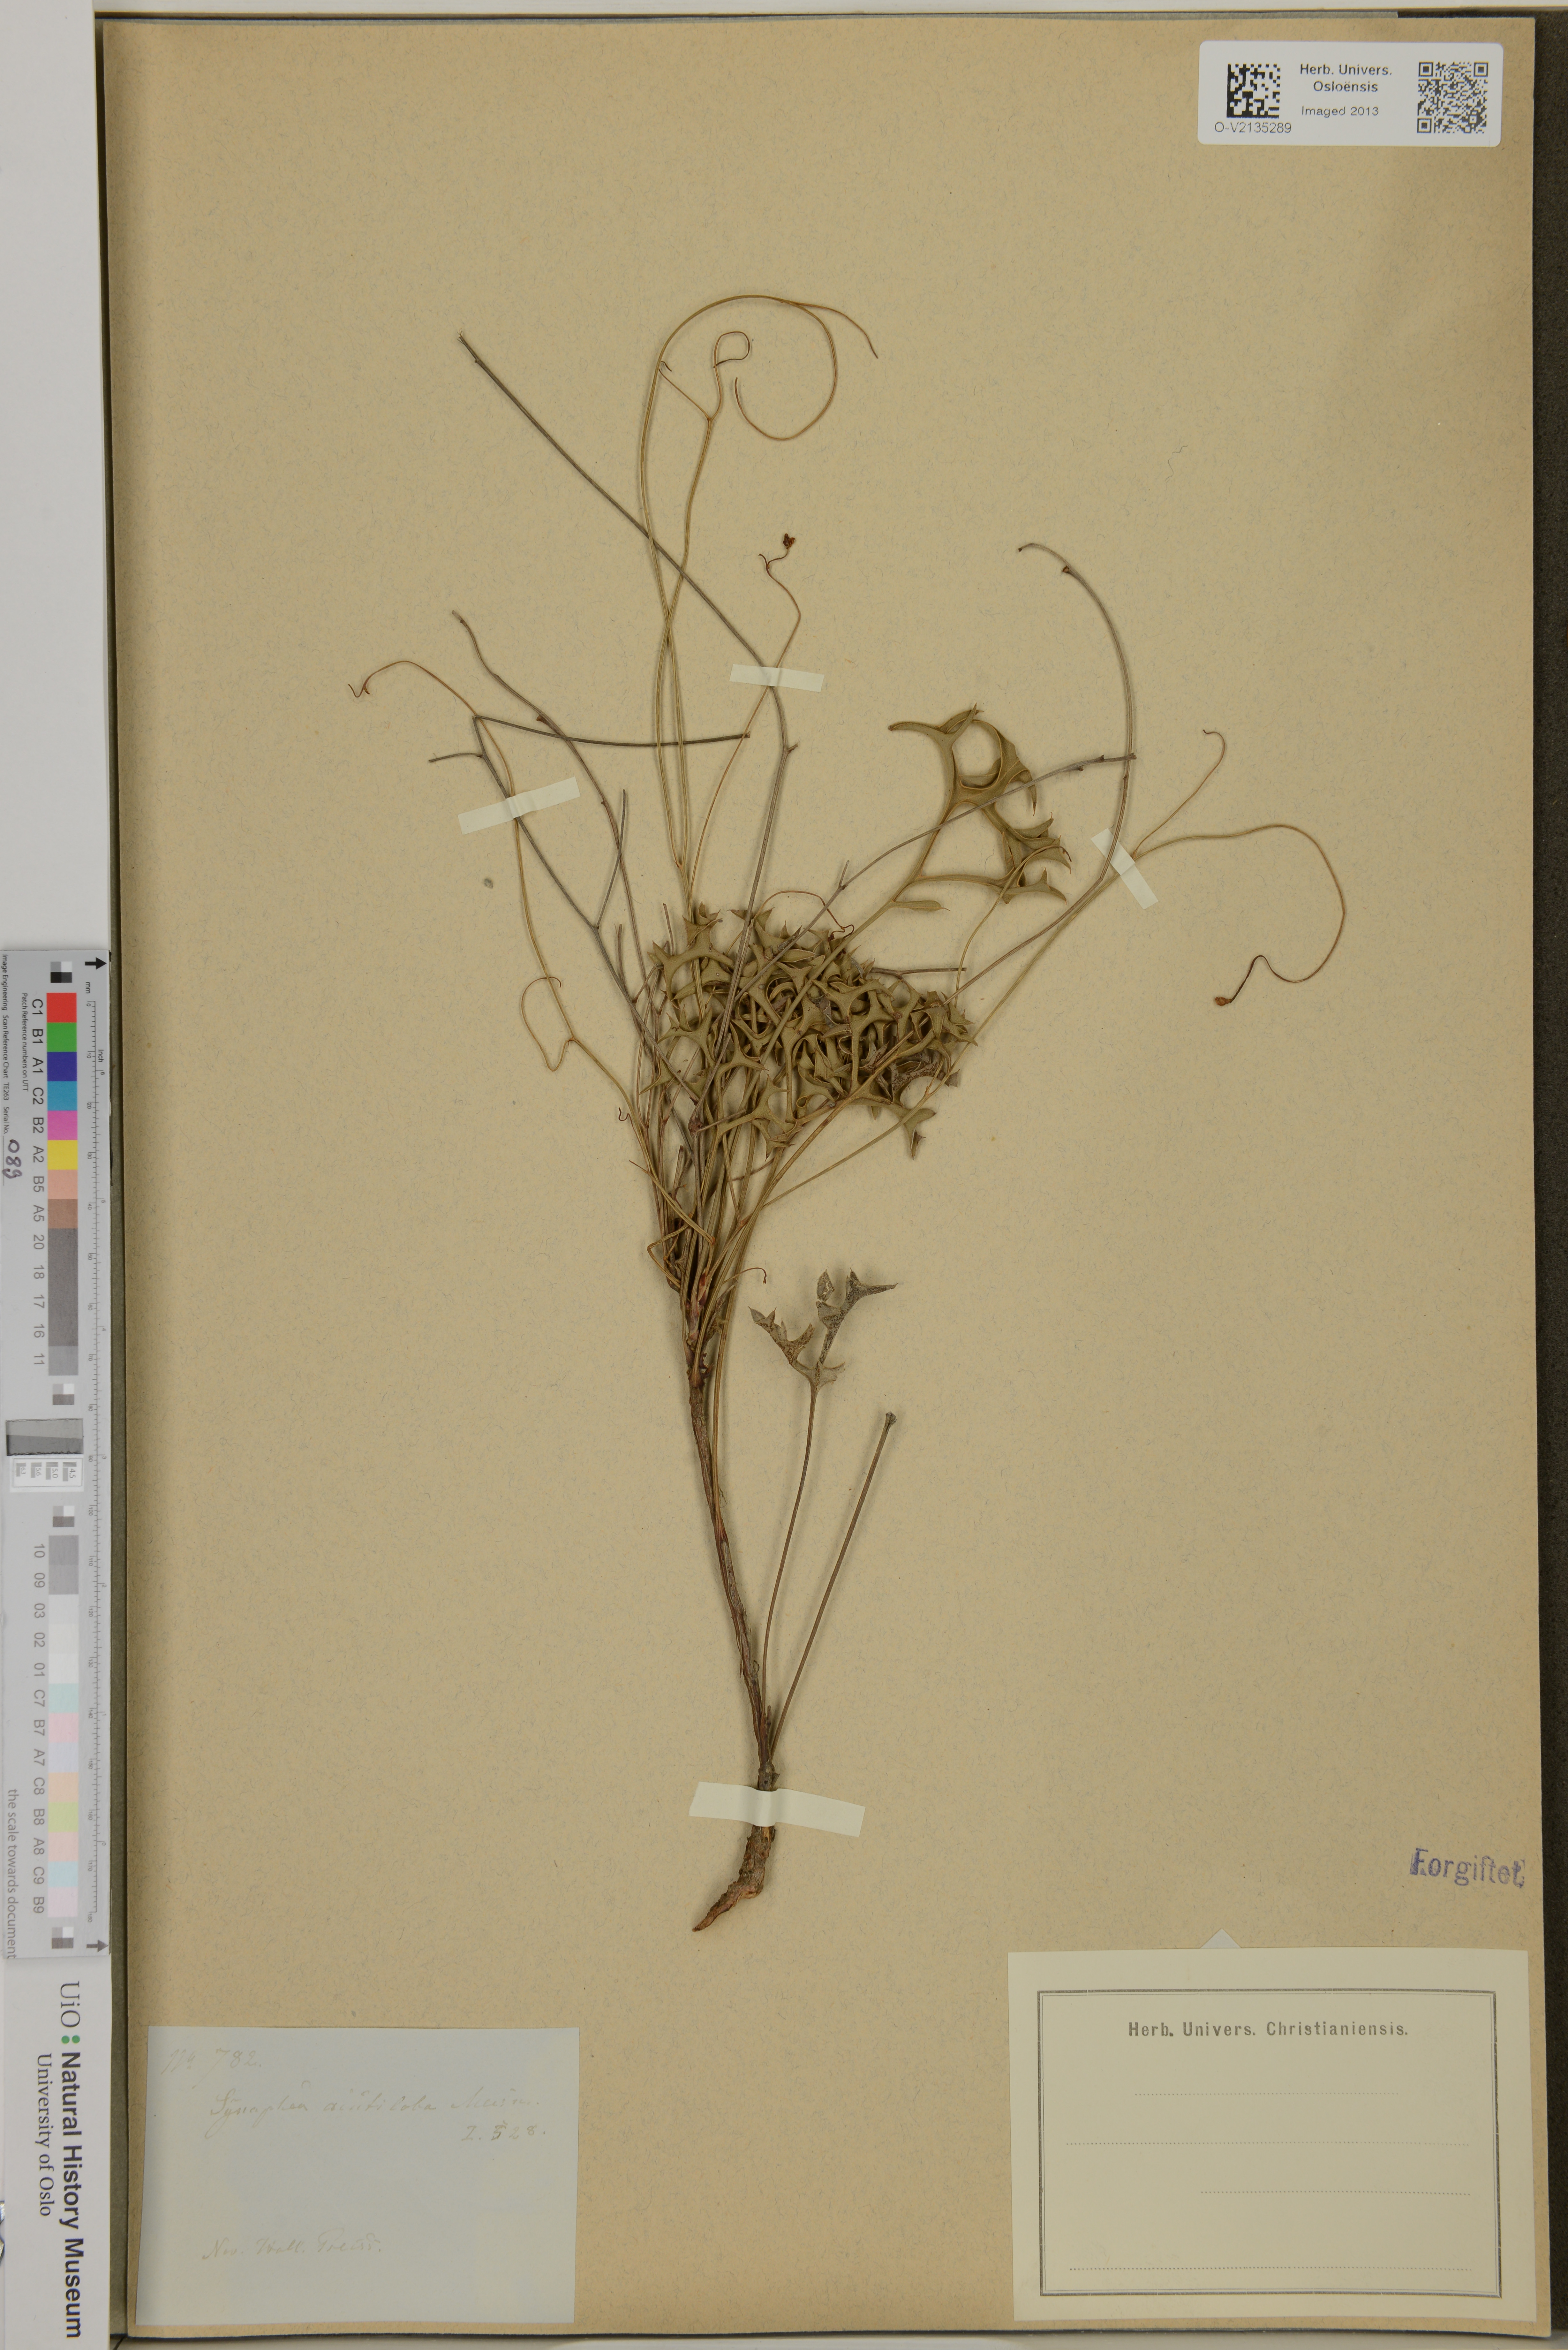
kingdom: Plantae
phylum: Tracheophyta
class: Magnoliopsida
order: Proteales
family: Proteaceae
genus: Synaphea
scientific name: Synaphea acutiloba
